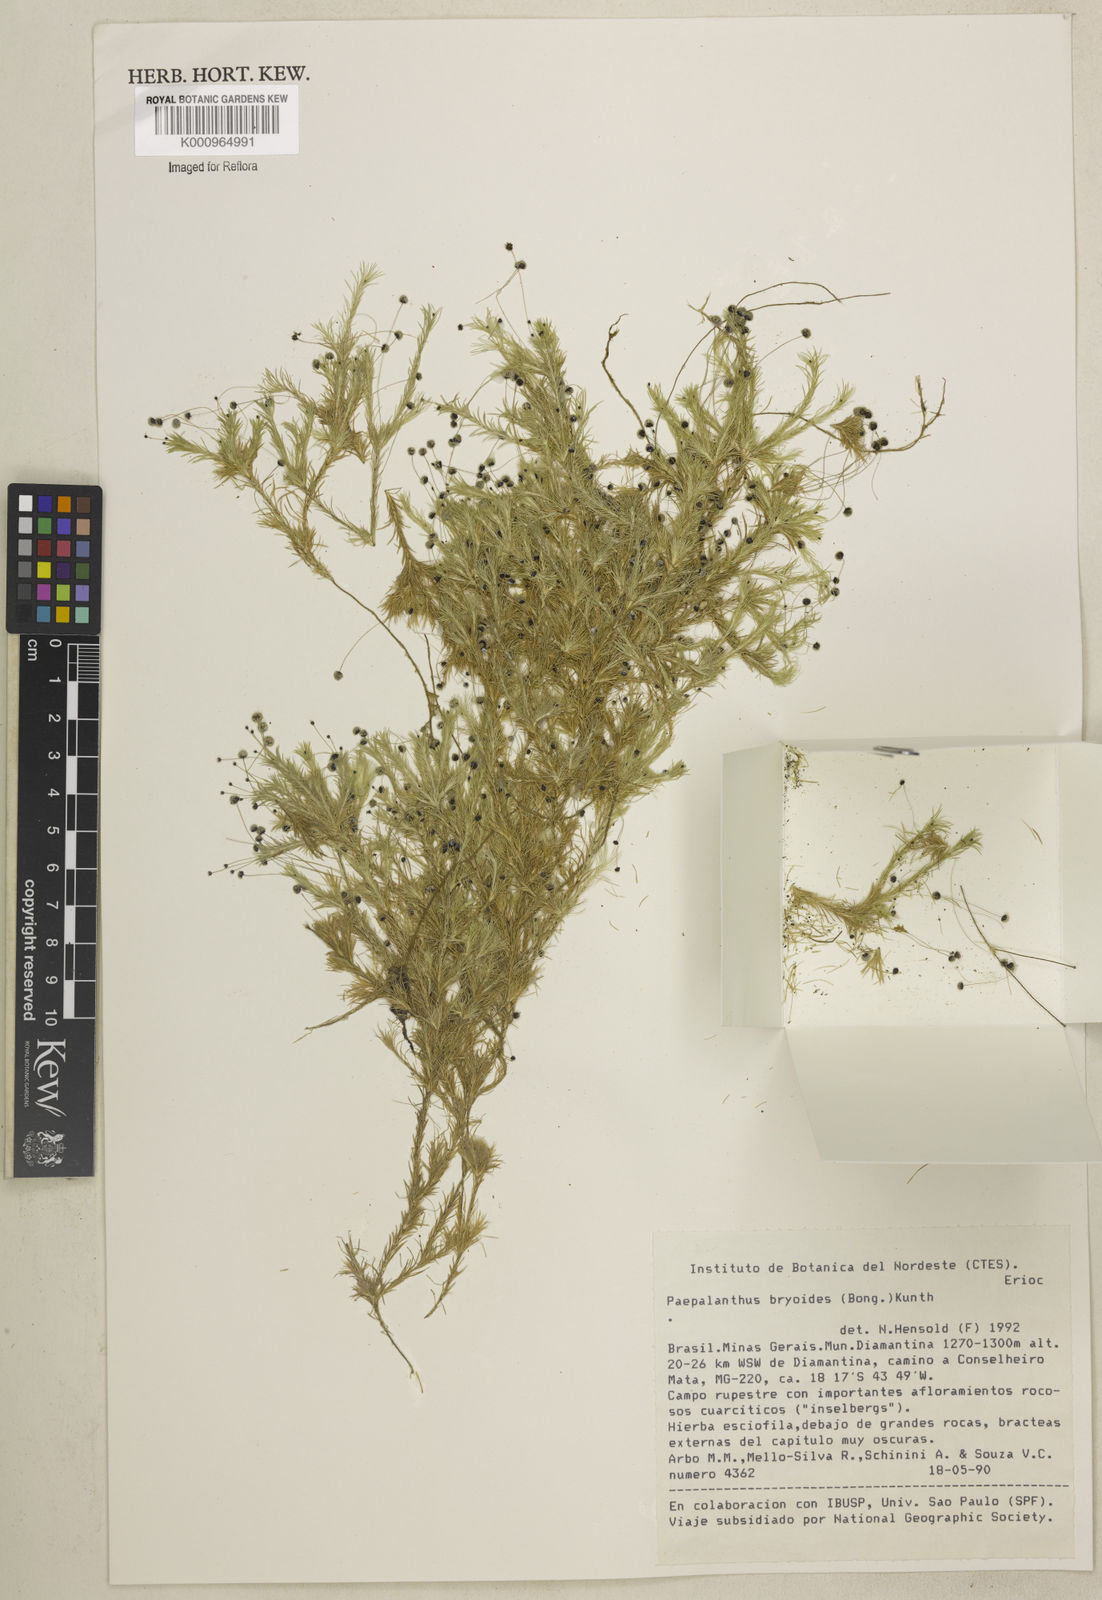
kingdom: Plantae
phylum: Tracheophyta
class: Liliopsida
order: Poales
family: Eriocaulaceae
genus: Paepalanthus
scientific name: Paepalanthus bryoides
